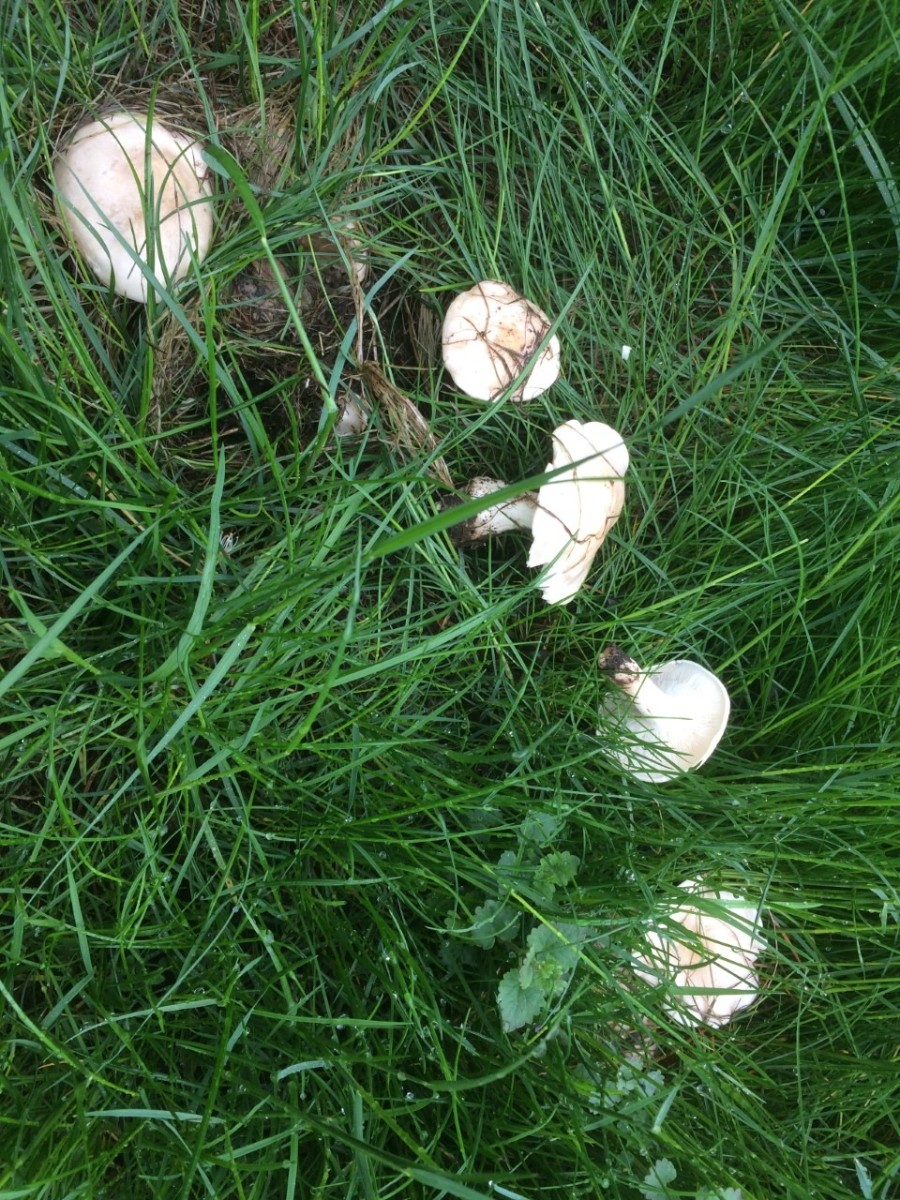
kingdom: Fungi
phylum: Basidiomycota
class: Agaricomycetes
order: Agaricales
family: Lyophyllaceae
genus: Calocybe
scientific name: Calocybe gambosa
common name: vårmusseron
